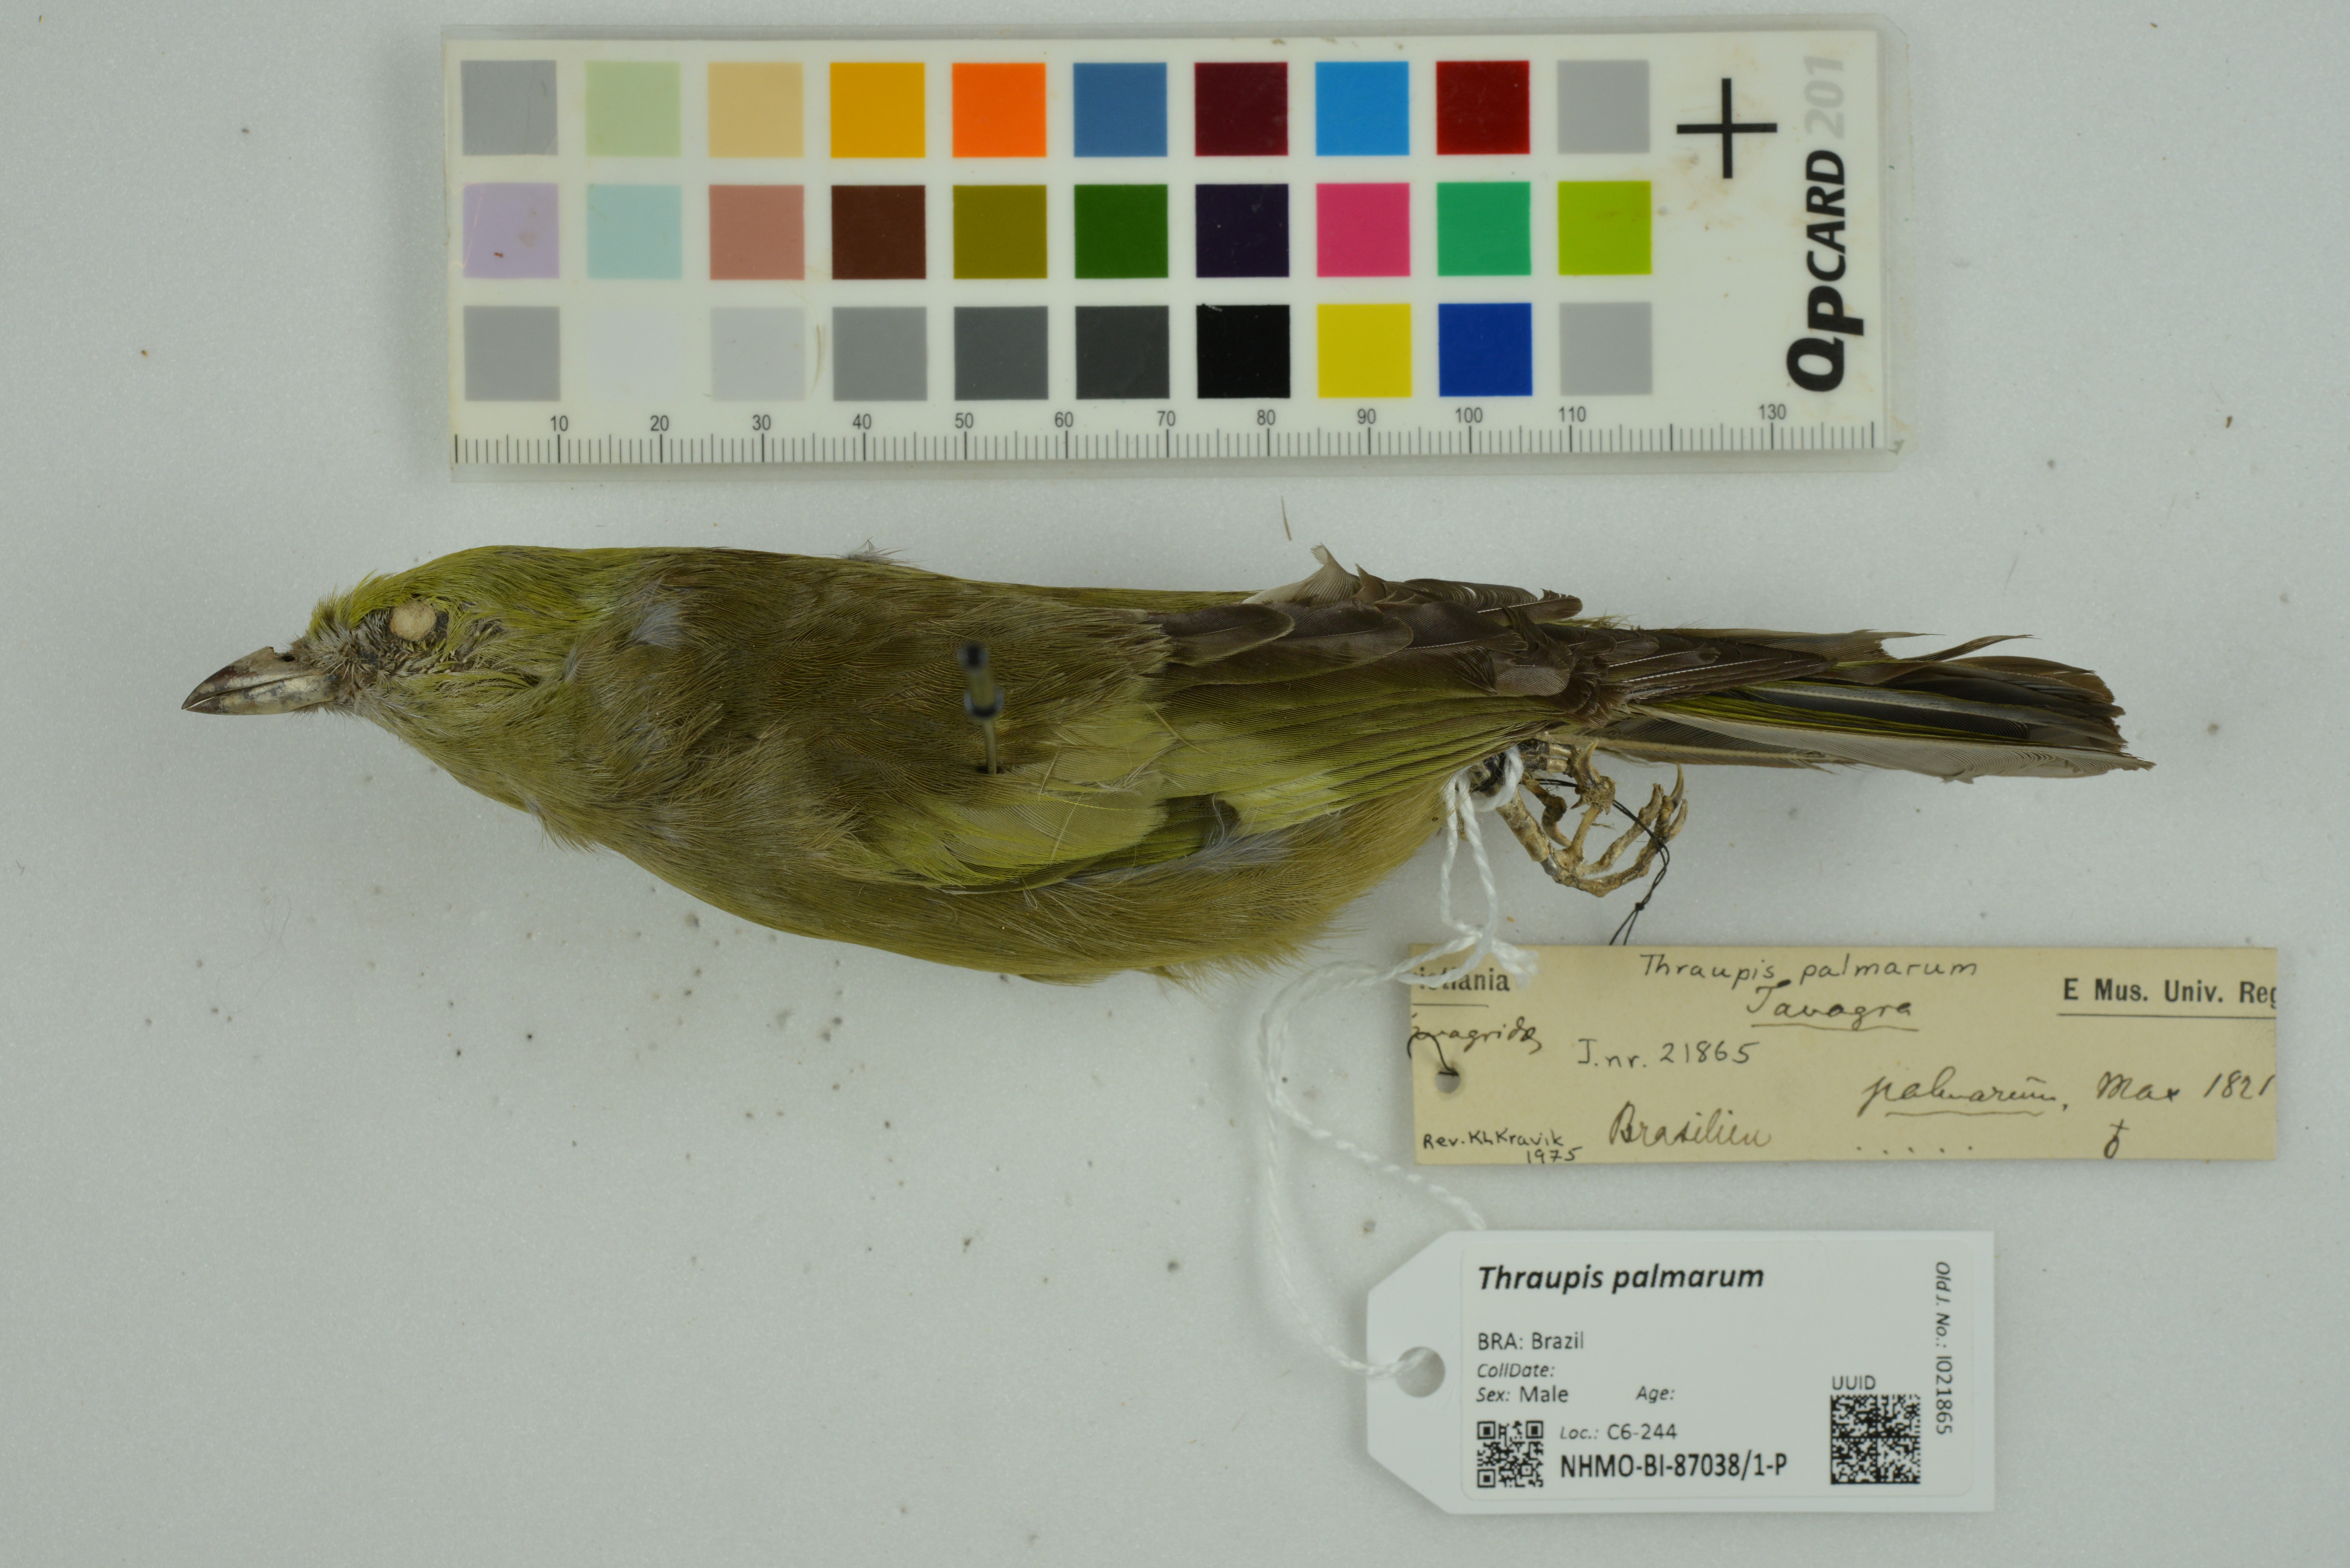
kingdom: Animalia
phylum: Chordata
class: Aves
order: Passeriformes
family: Thraupidae
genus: Thraupis
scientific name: Thraupis palmarum
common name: Palm tanager
